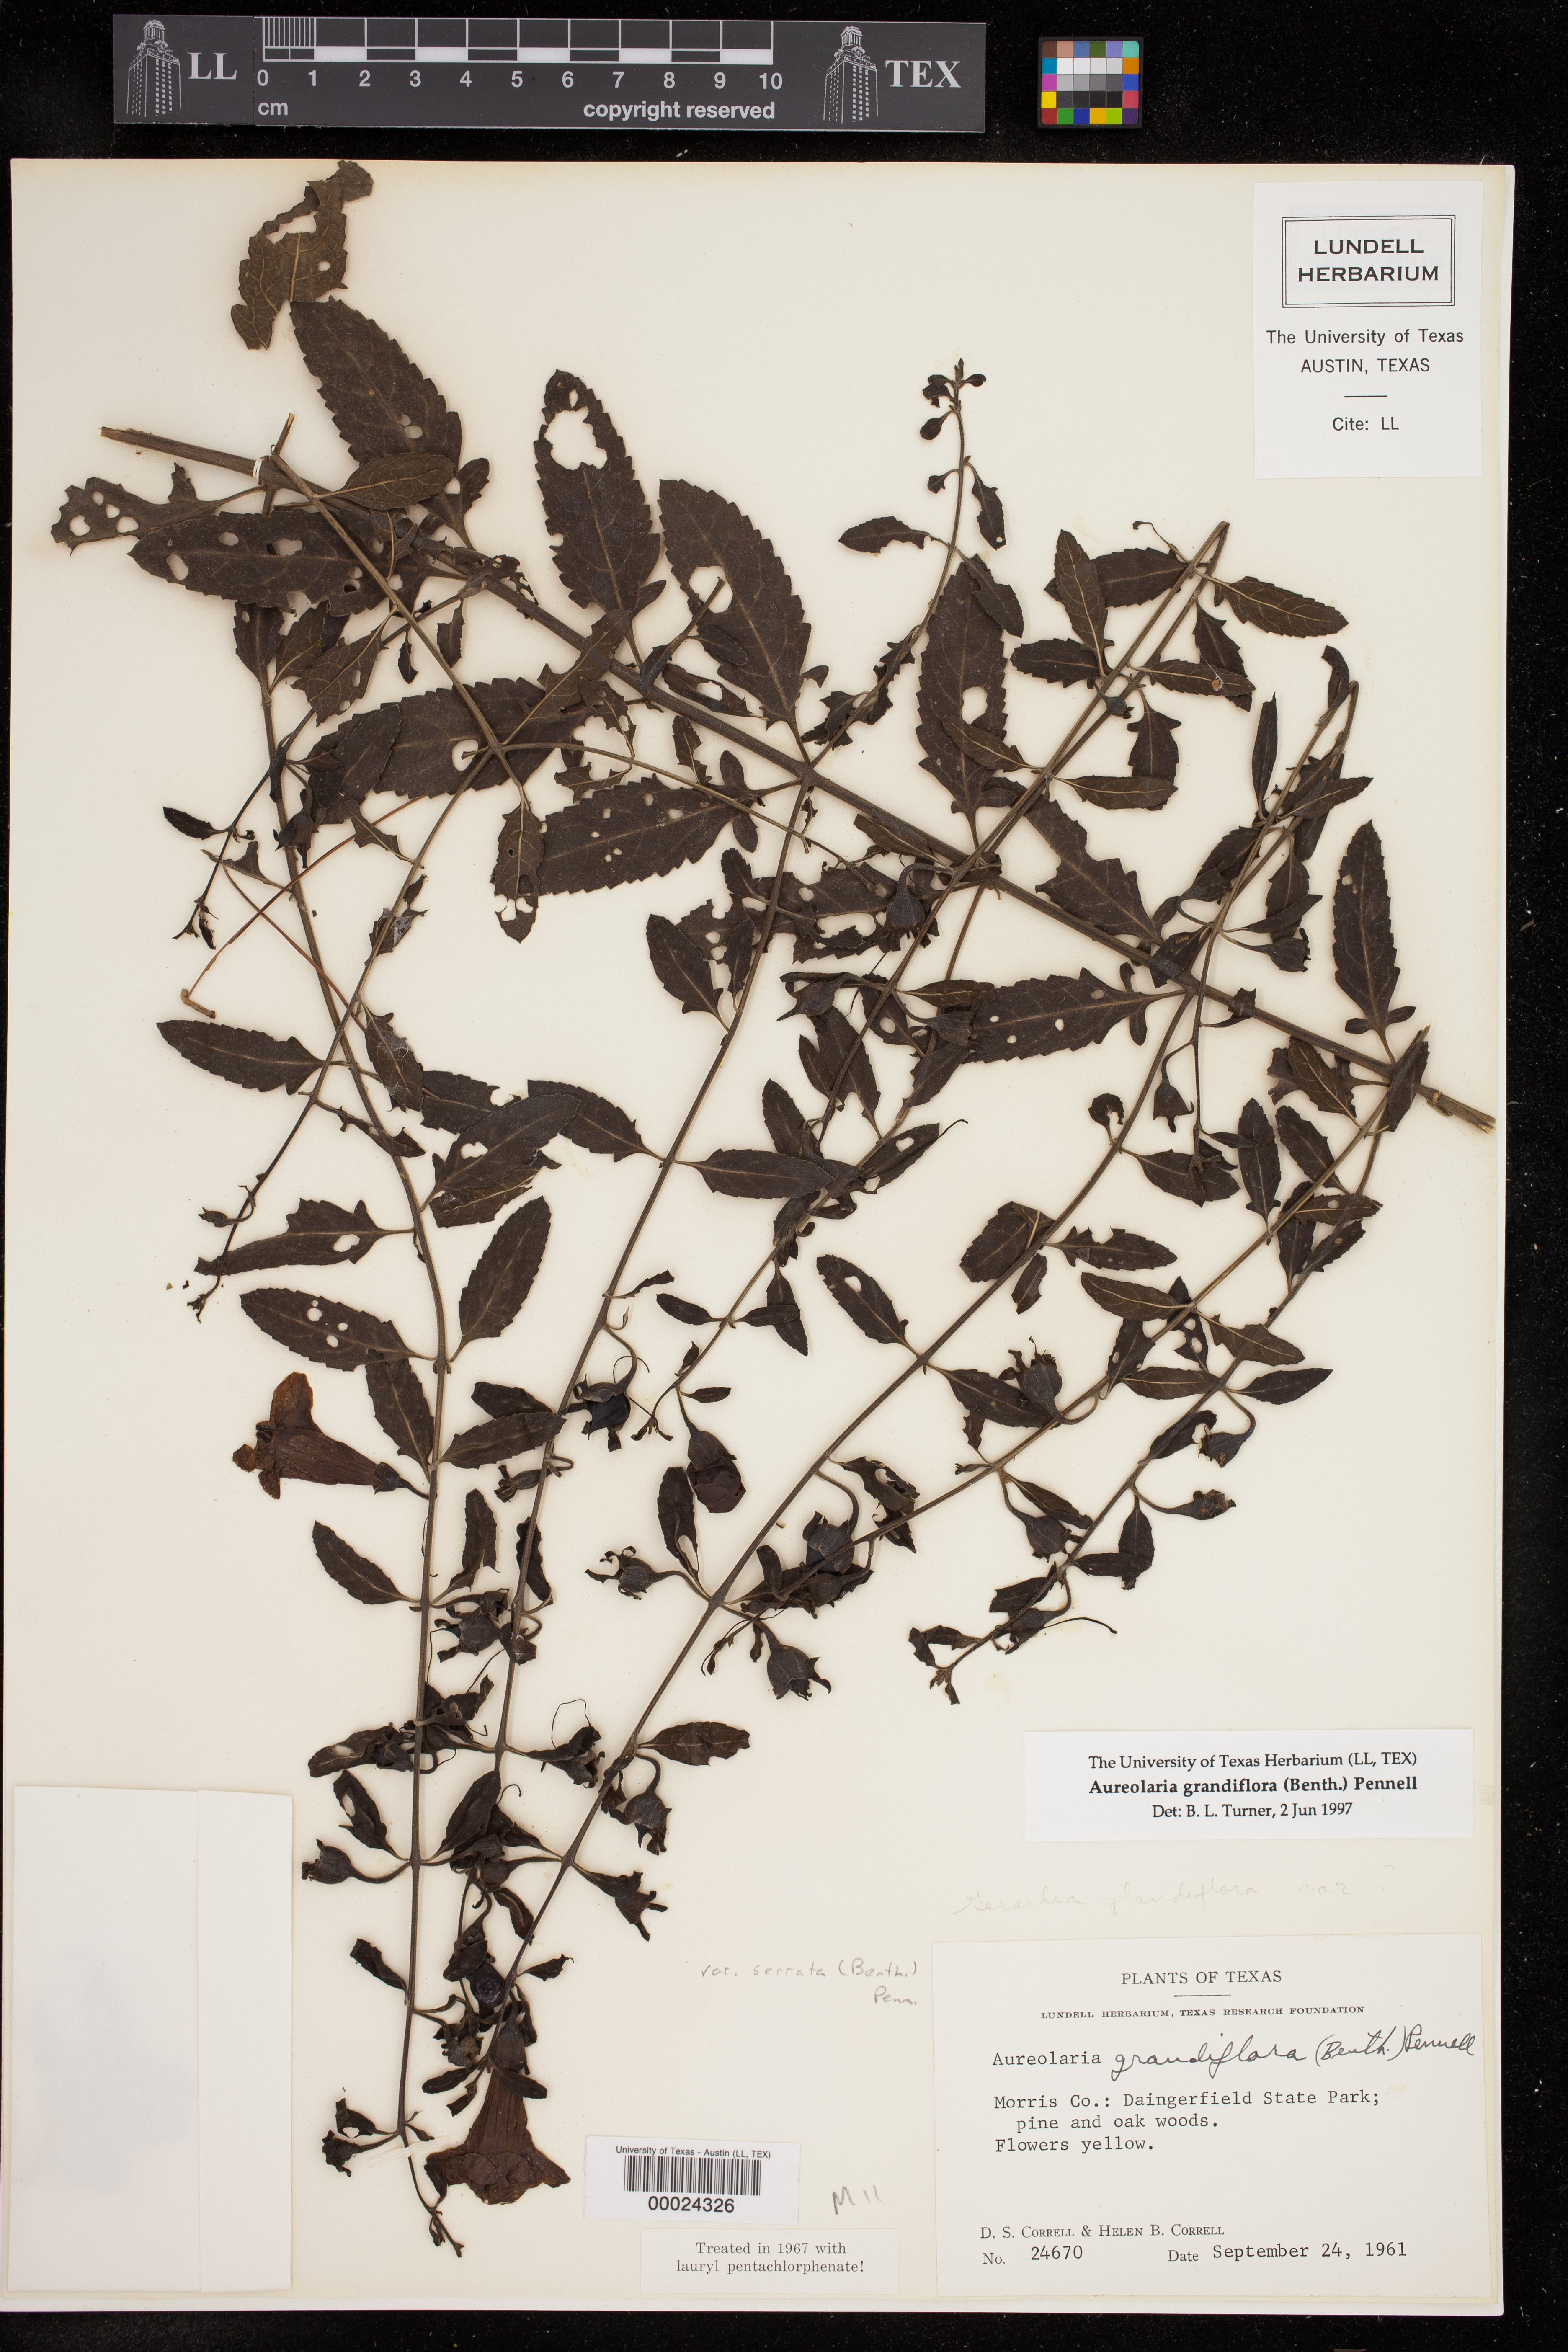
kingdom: Plantae
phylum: Tracheophyta
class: Magnoliopsida
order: Lamiales
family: Orobanchaceae
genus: Aureolaria
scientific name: Aureolaria grandiflora
